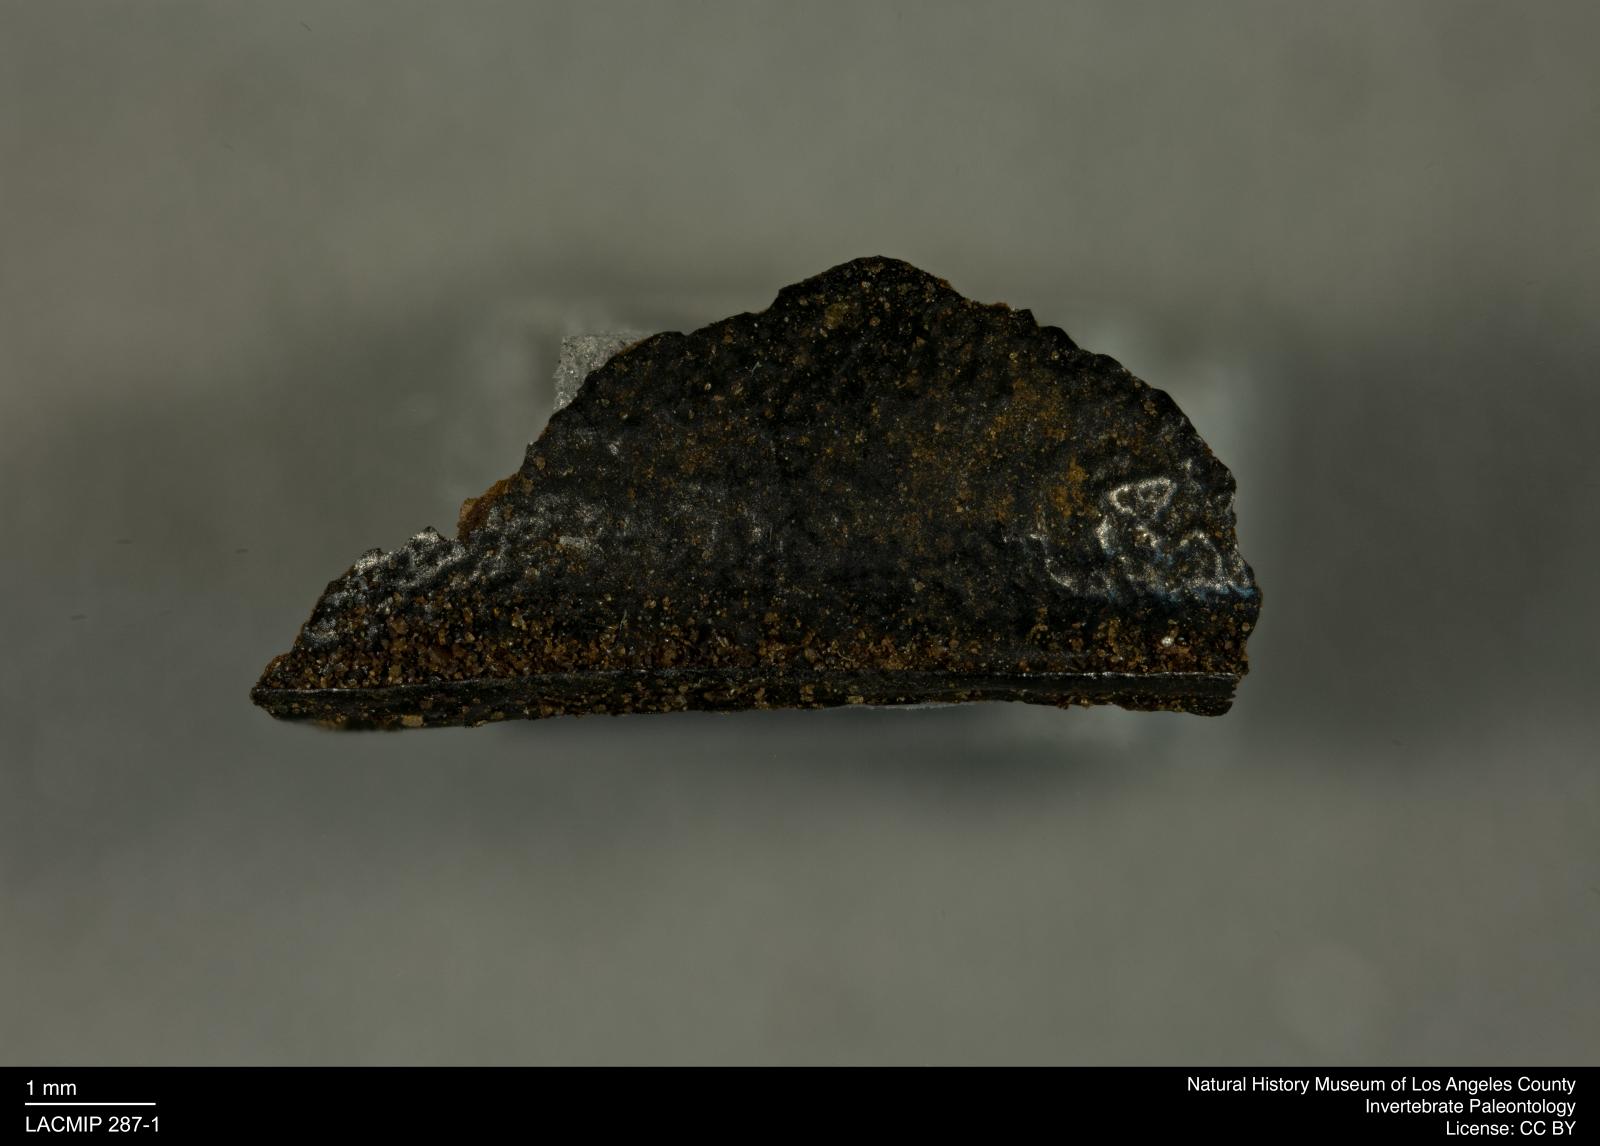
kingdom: Animalia
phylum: Arthropoda
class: Insecta
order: Coleoptera
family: Tenebrionidae
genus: Coniontis
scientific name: Coniontis abdominalis
